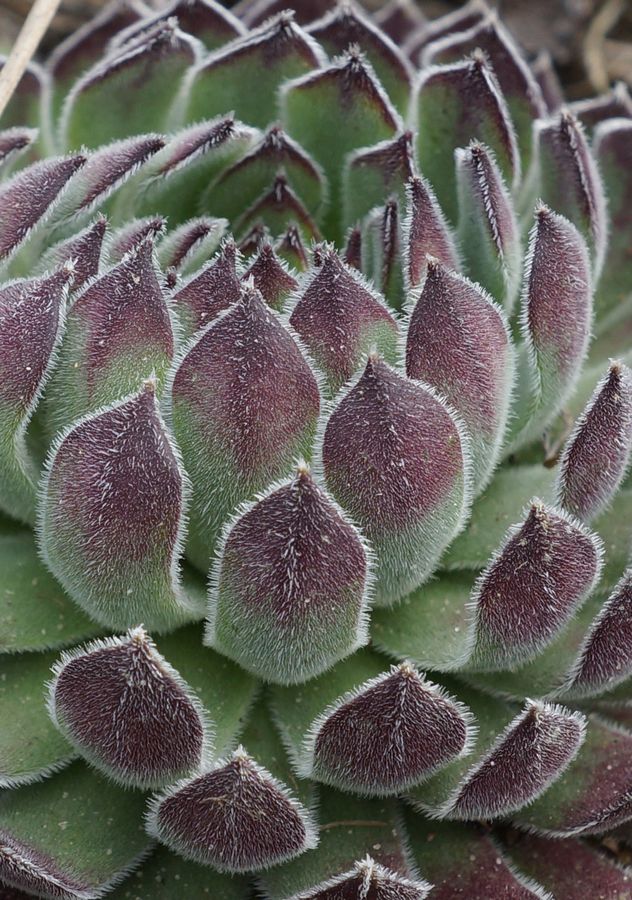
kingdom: Plantae
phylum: Tracheophyta
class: Magnoliopsida
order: Saxifragales
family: Crassulaceae
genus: Sempervivum
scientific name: Sempervivum ruthenicum
